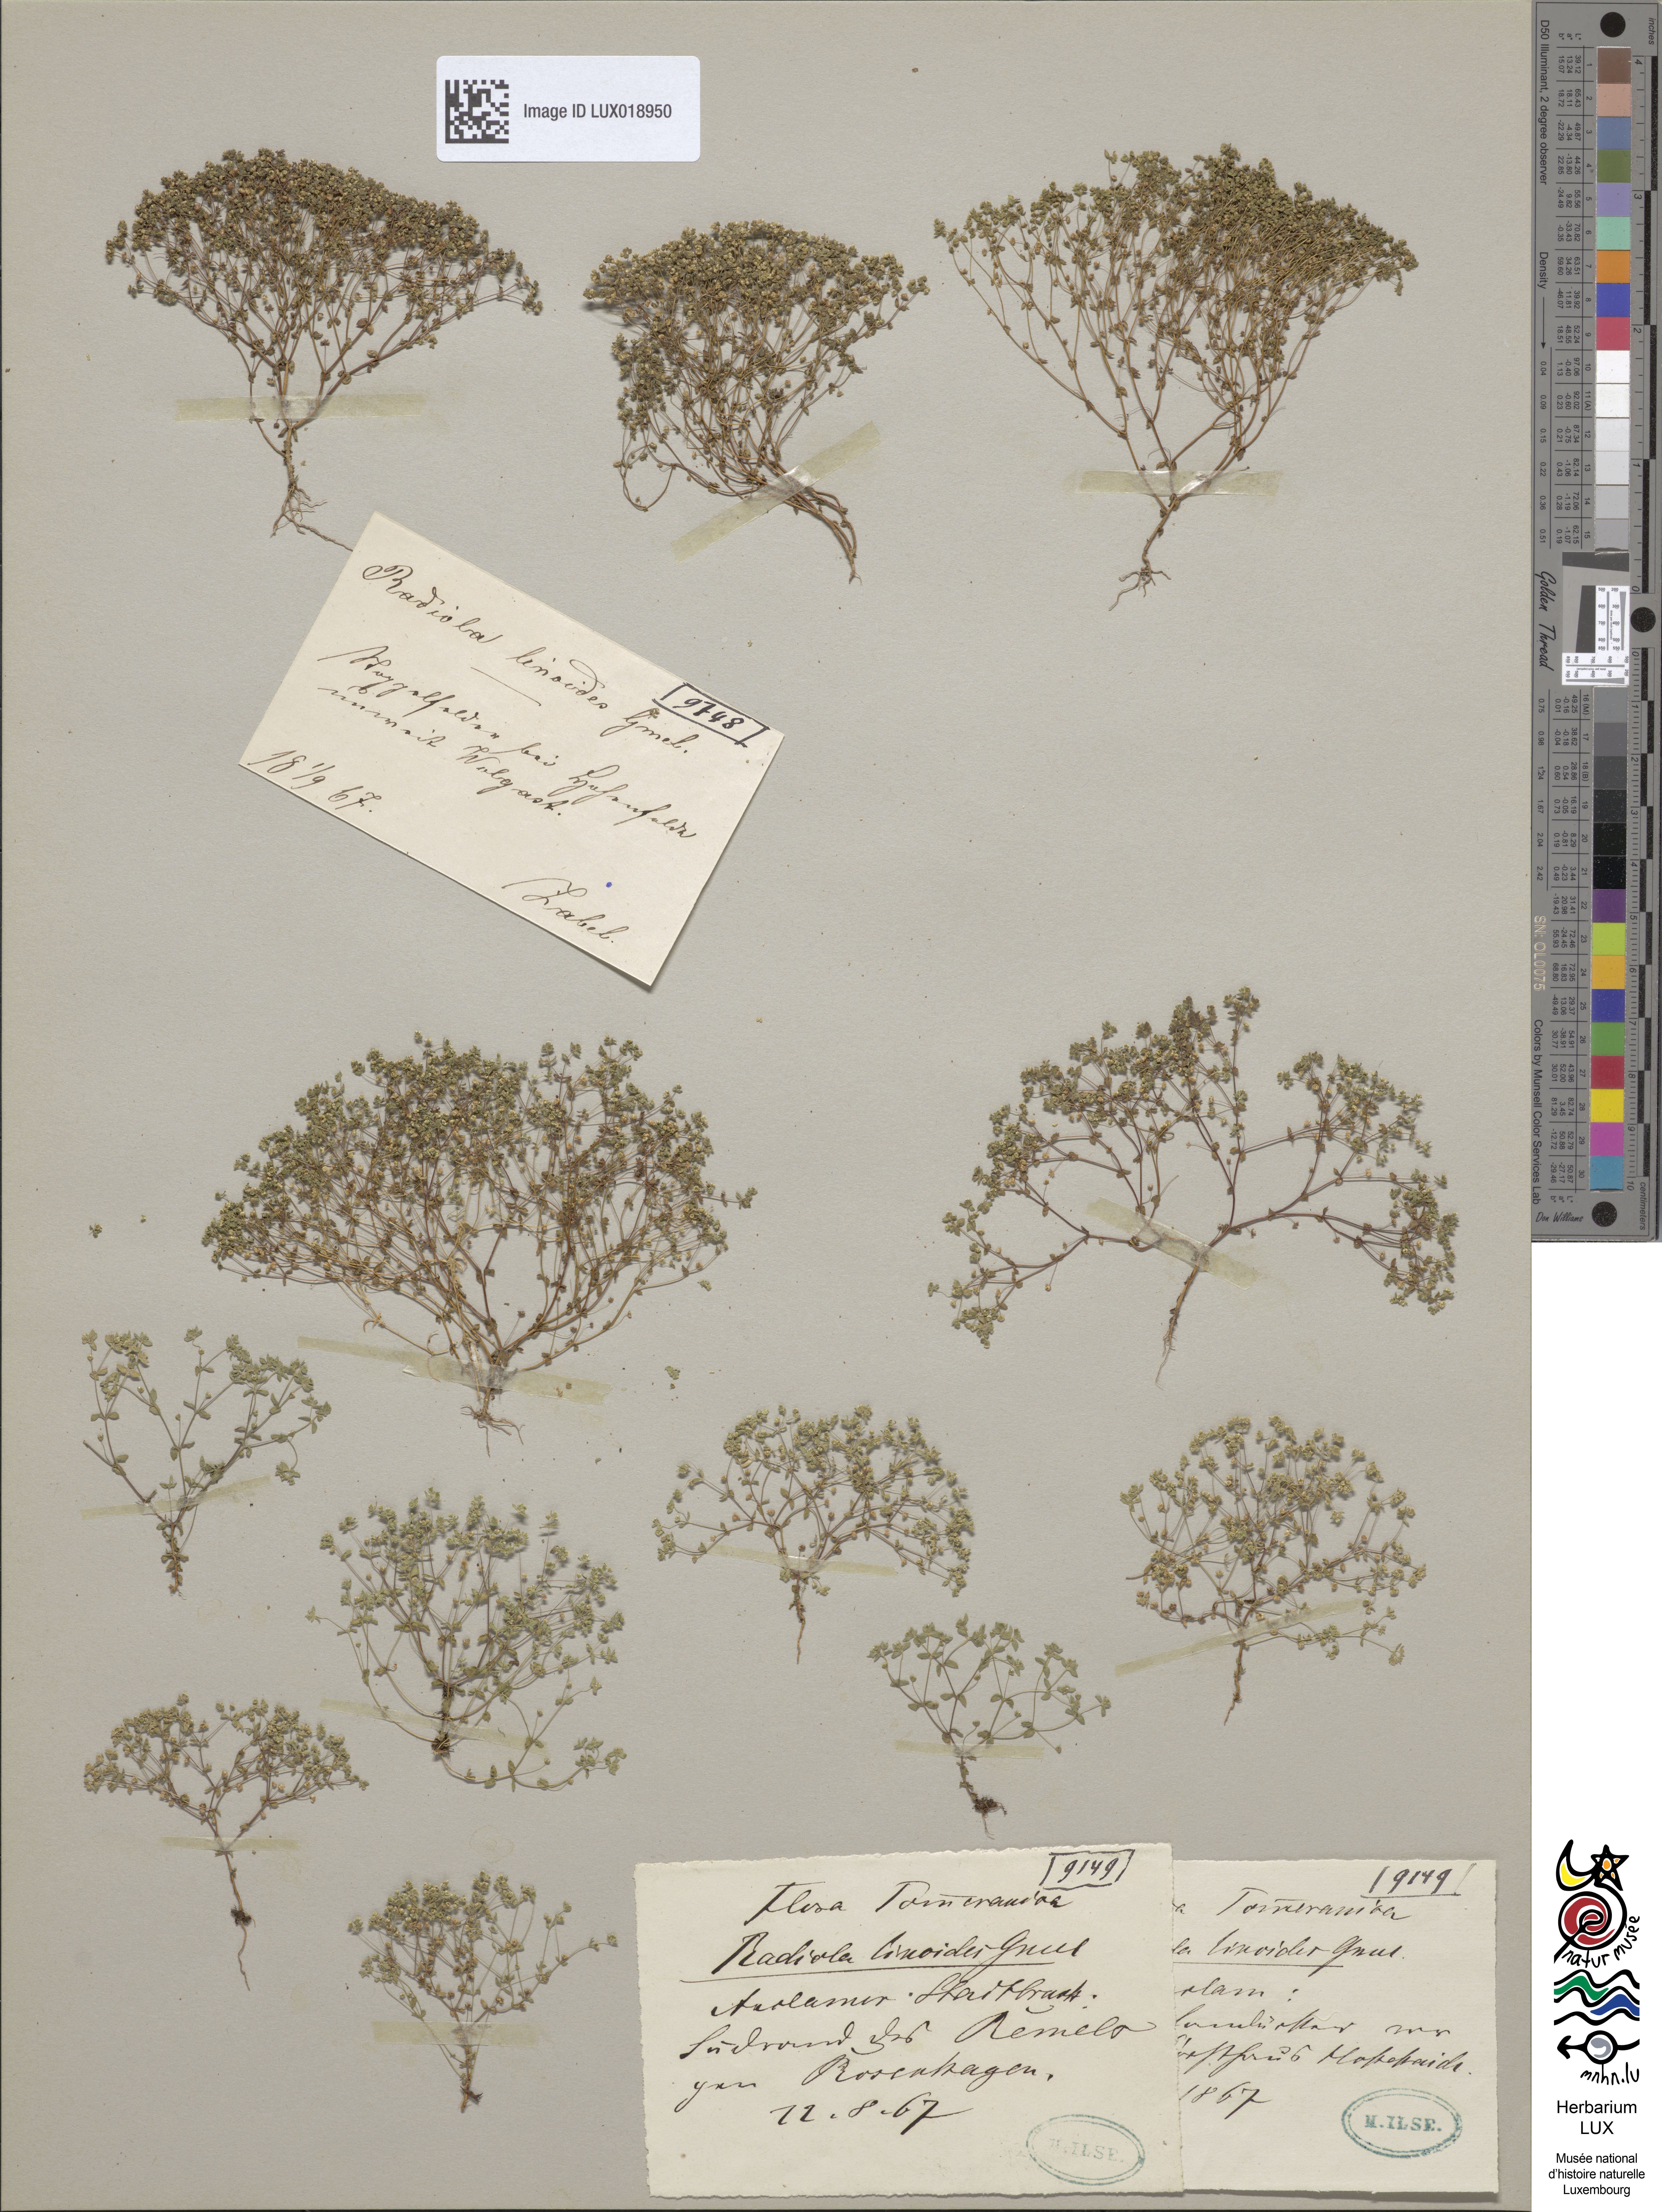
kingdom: Plantae
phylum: Tracheophyta
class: Magnoliopsida
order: Malpighiales
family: Linaceae
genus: Radiola
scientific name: Radiola linoides
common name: Allseed
